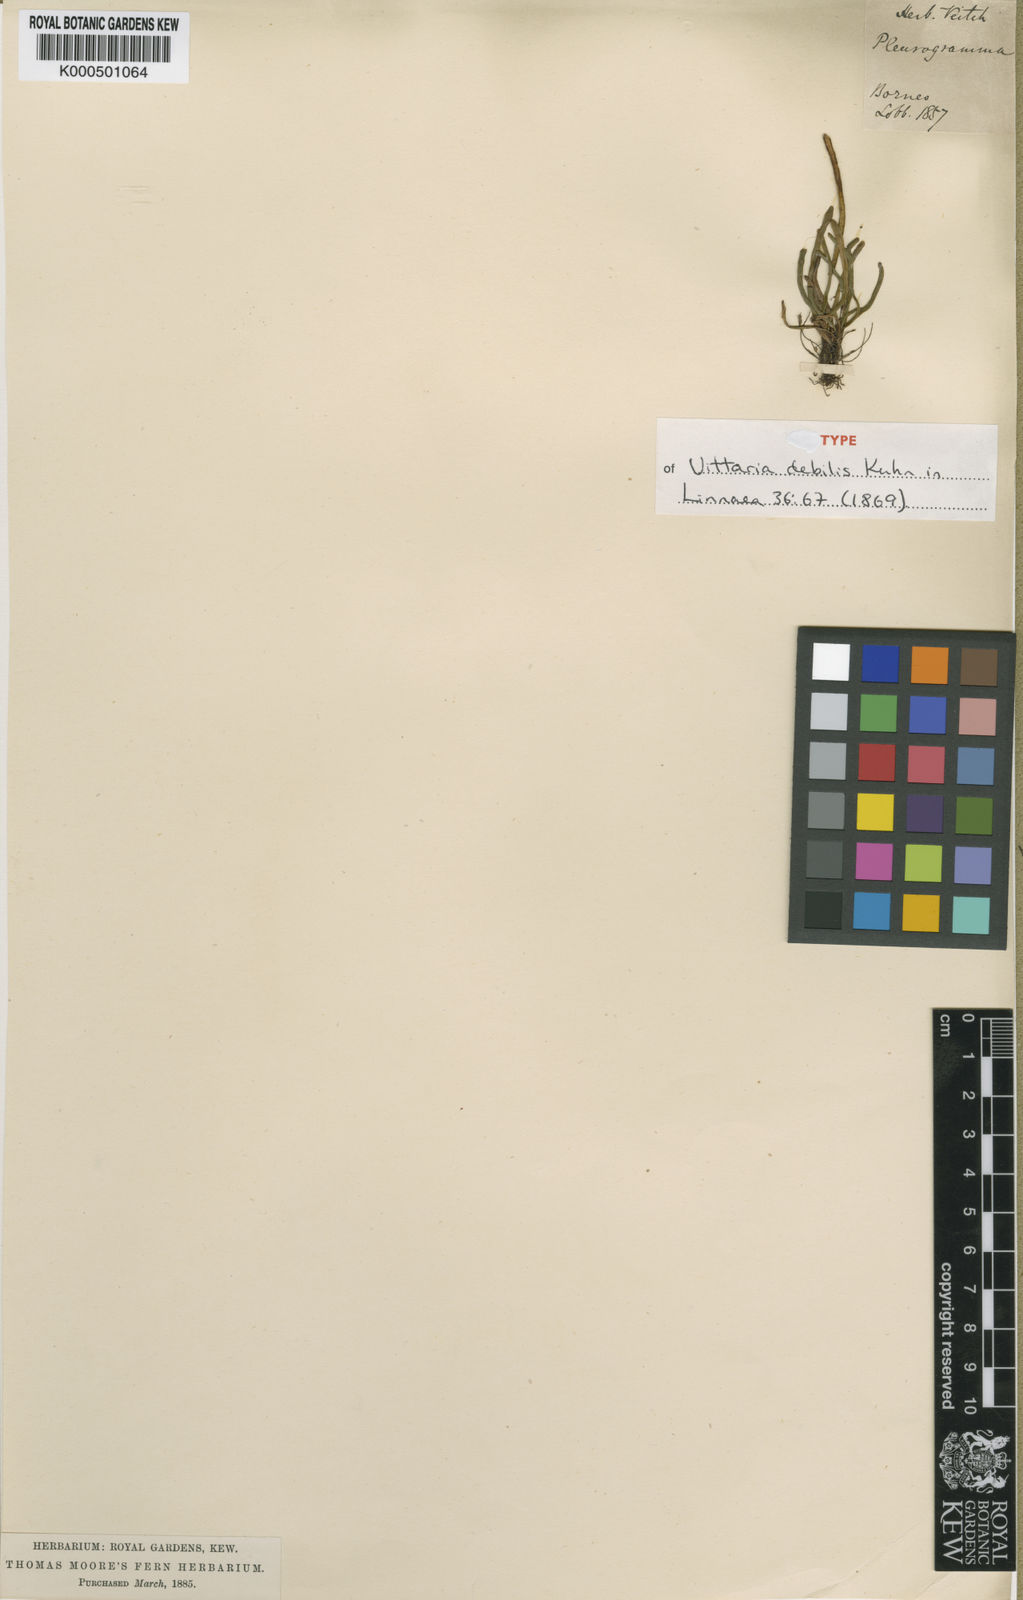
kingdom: Plantae
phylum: Tracheophyta
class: Polypodiopsida
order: Polypodiales
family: Polypodiaceae
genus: Scleroglossum
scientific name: Scleroglossum debile
